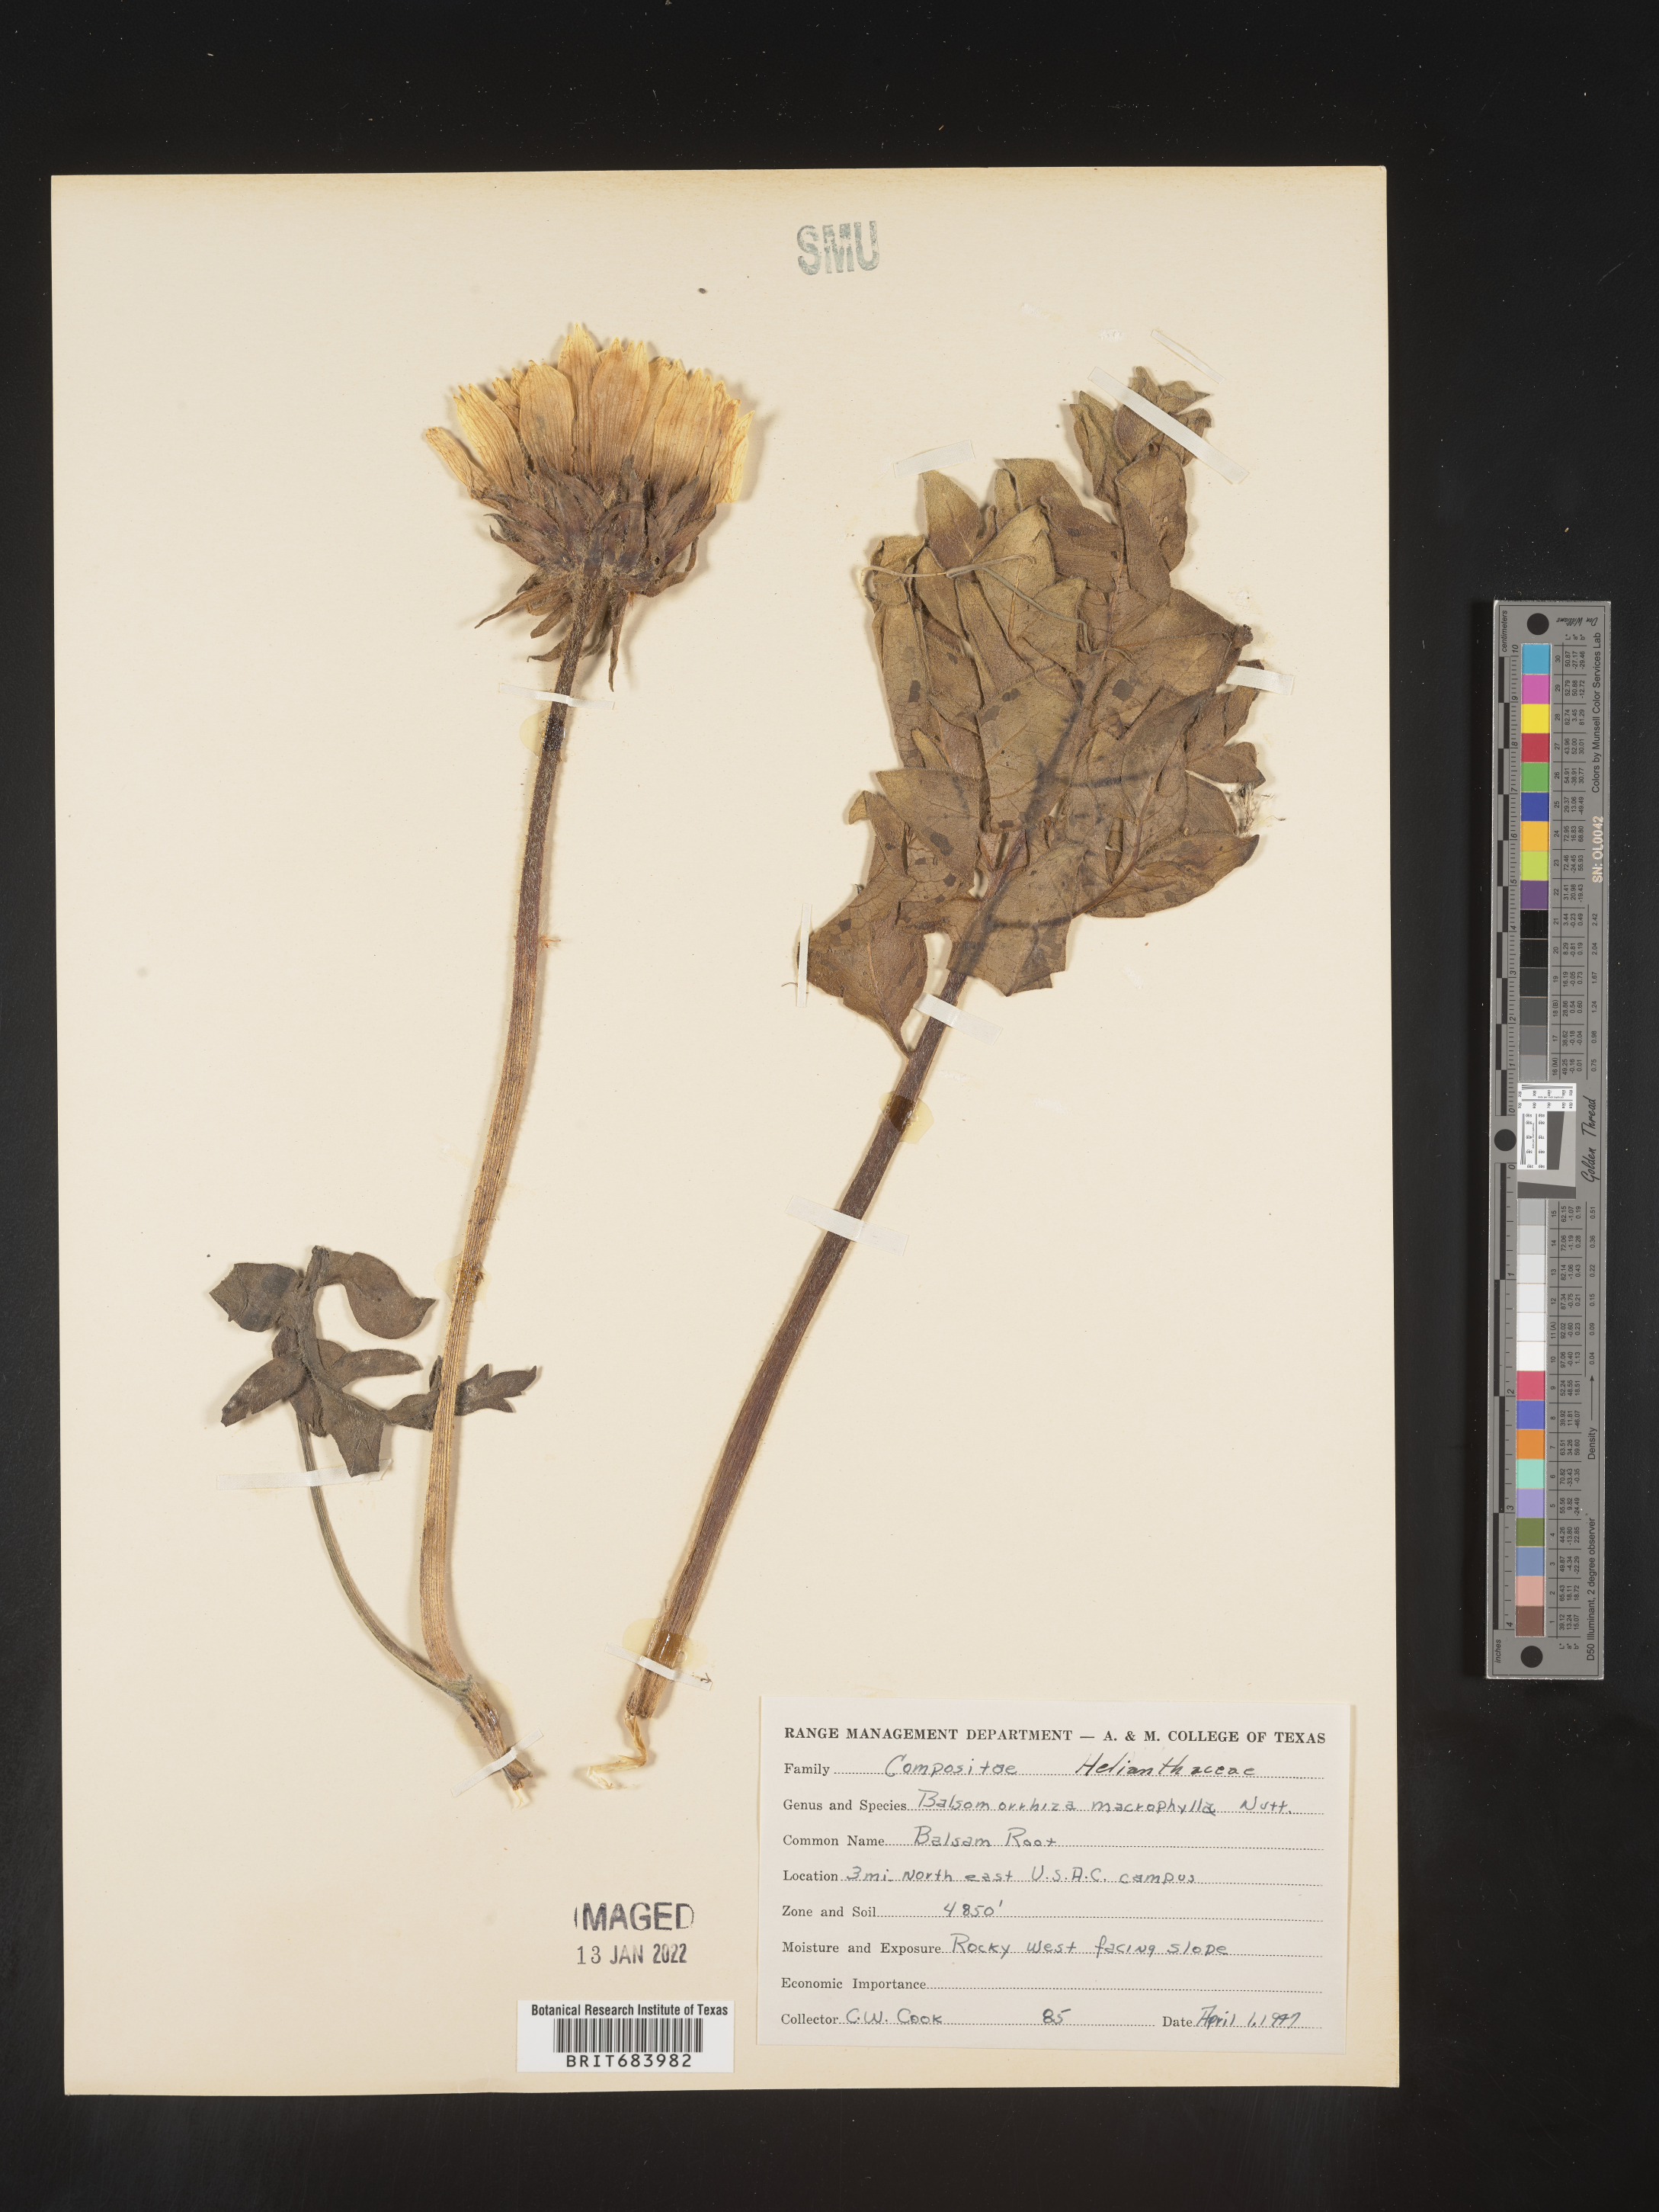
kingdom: Plantae
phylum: Tracheophyta
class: Magnoliopsida
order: Asterales
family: Asteraceae
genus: Balsamorhiza
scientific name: Balsamorhiza
